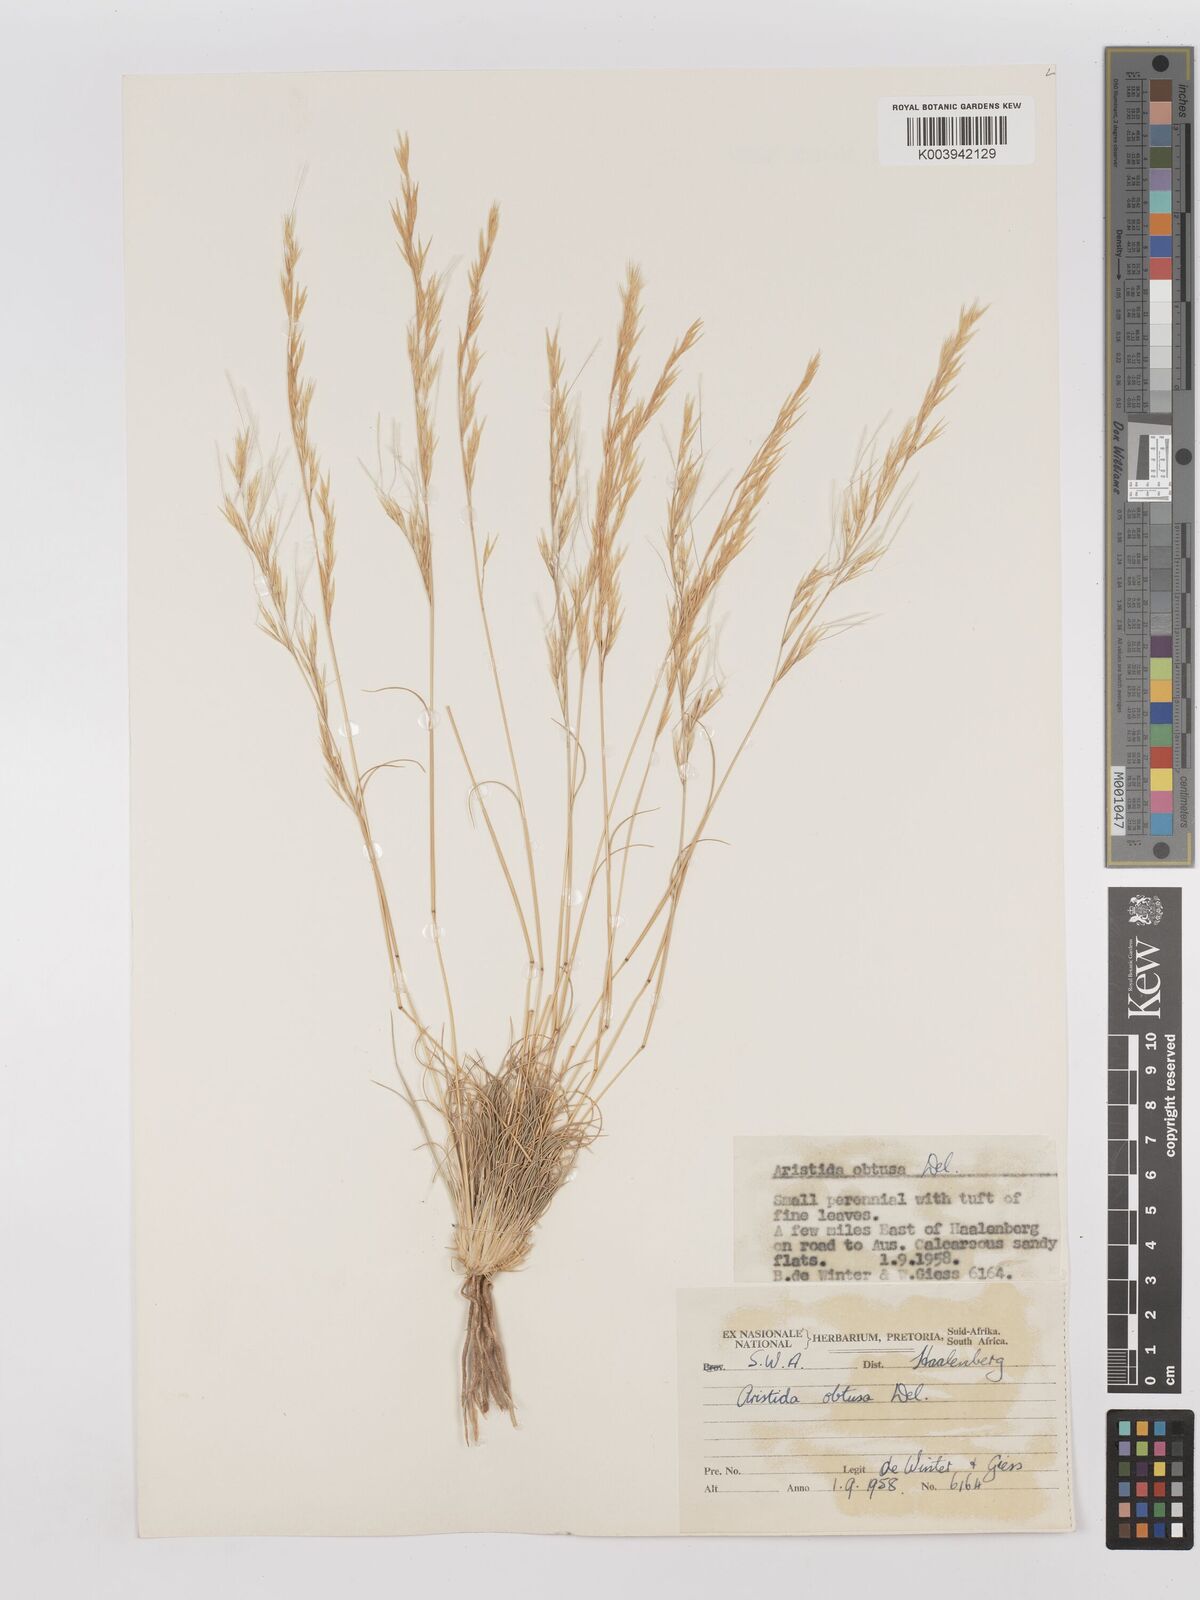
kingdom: Plantae
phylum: Tracheophyta
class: Liliopsida
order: Poales
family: Poaceae
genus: Stipagrostis
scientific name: Stipagrostis obtusa
